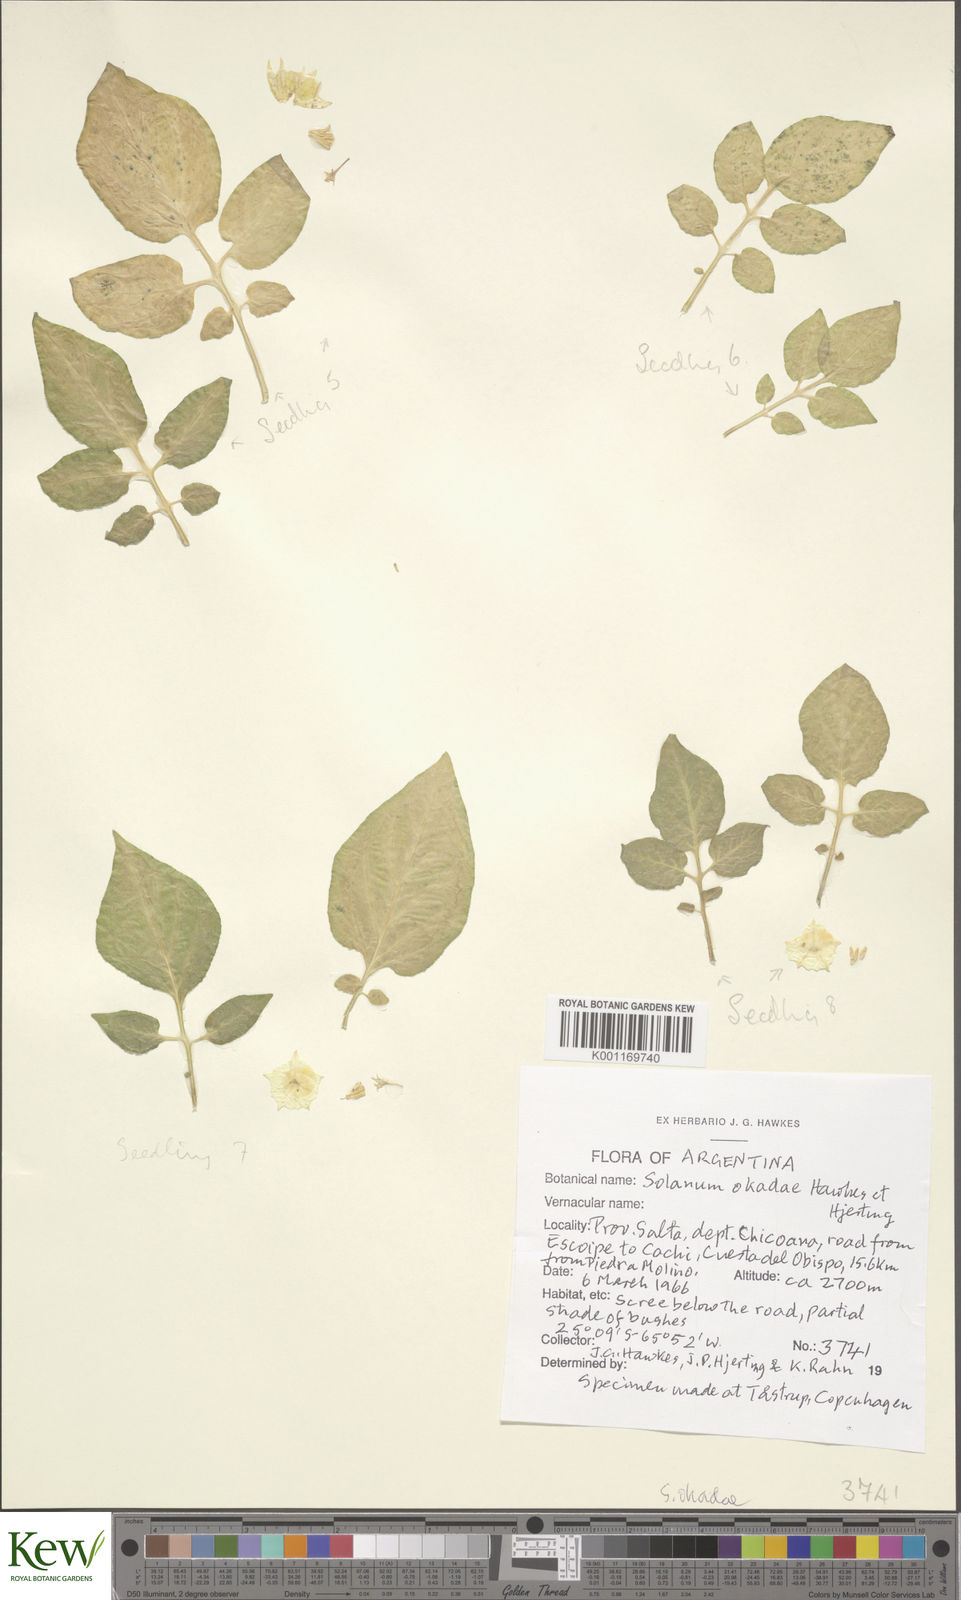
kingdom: Plantae
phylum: Tracheophyta
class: Magnoliopsida
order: Solanales
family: Solanaceae
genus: Solanum
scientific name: Solanum okadae
